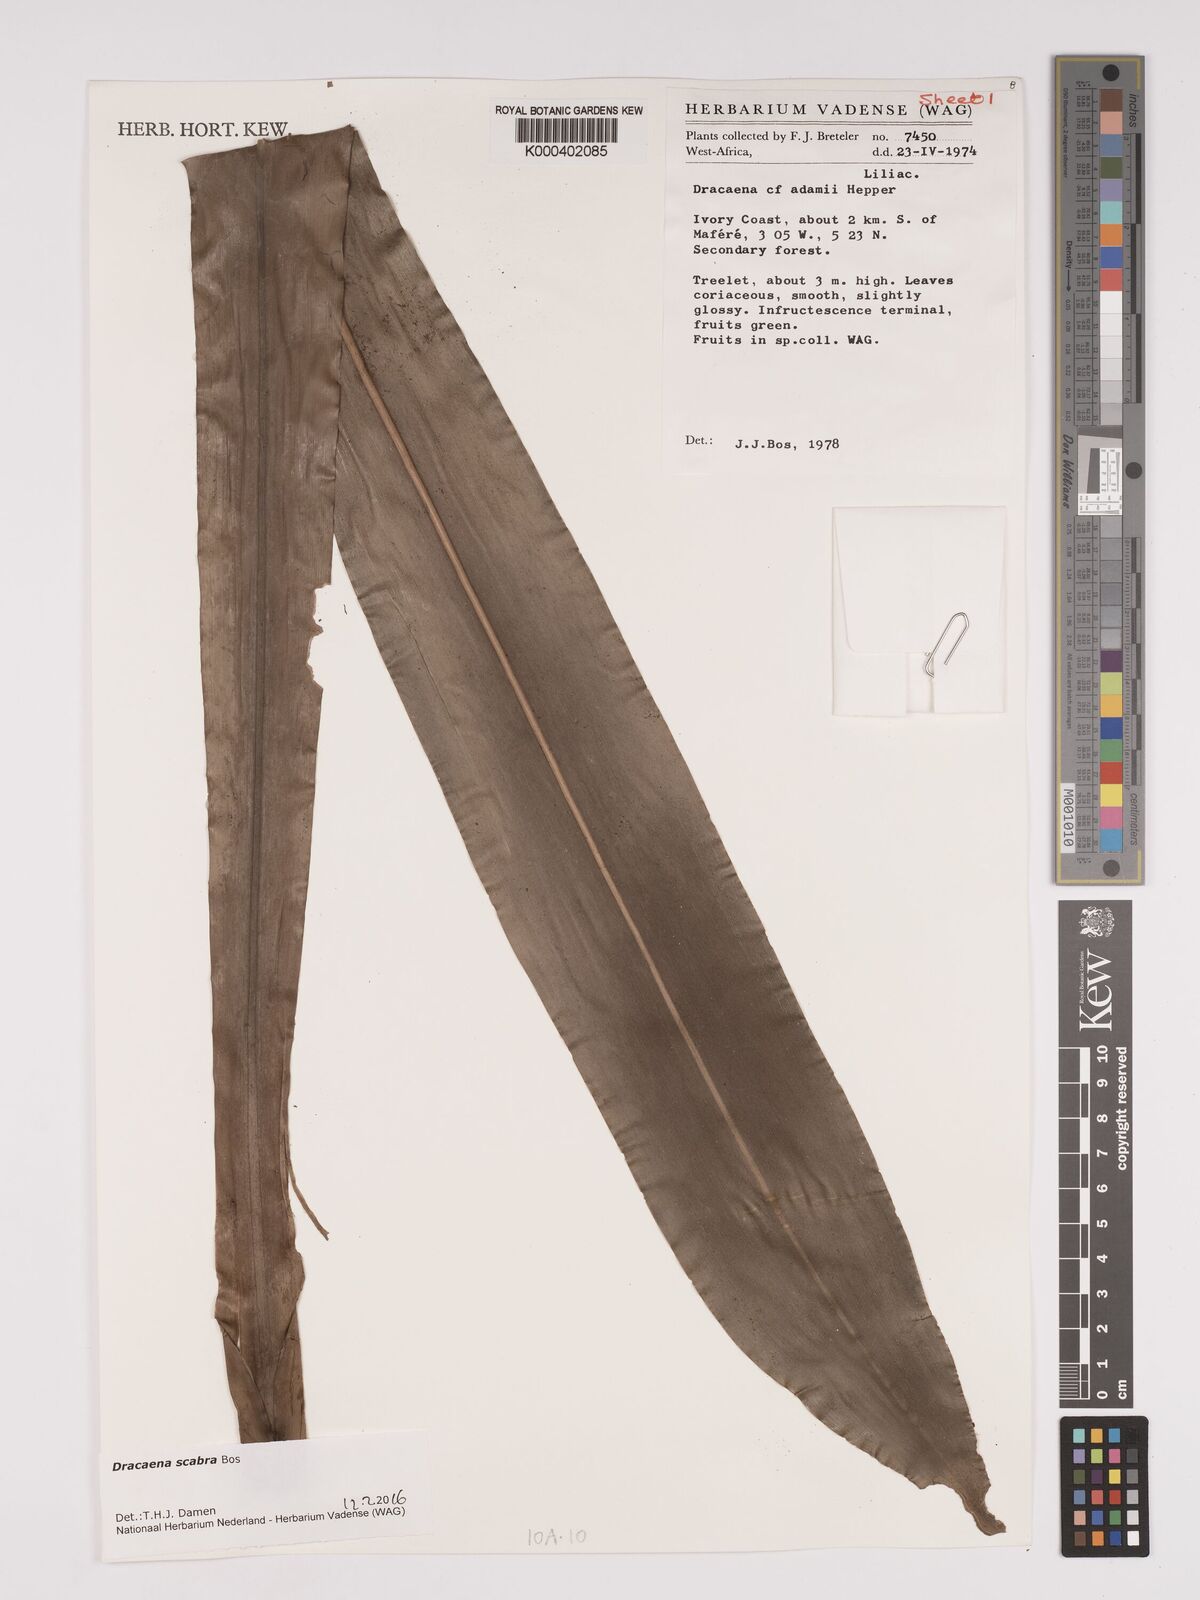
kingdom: Plantae
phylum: Tracheophyta
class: Liliopsida
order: Asparagales
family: Asparagaceae
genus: Dracaena
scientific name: Dracaena scabra
